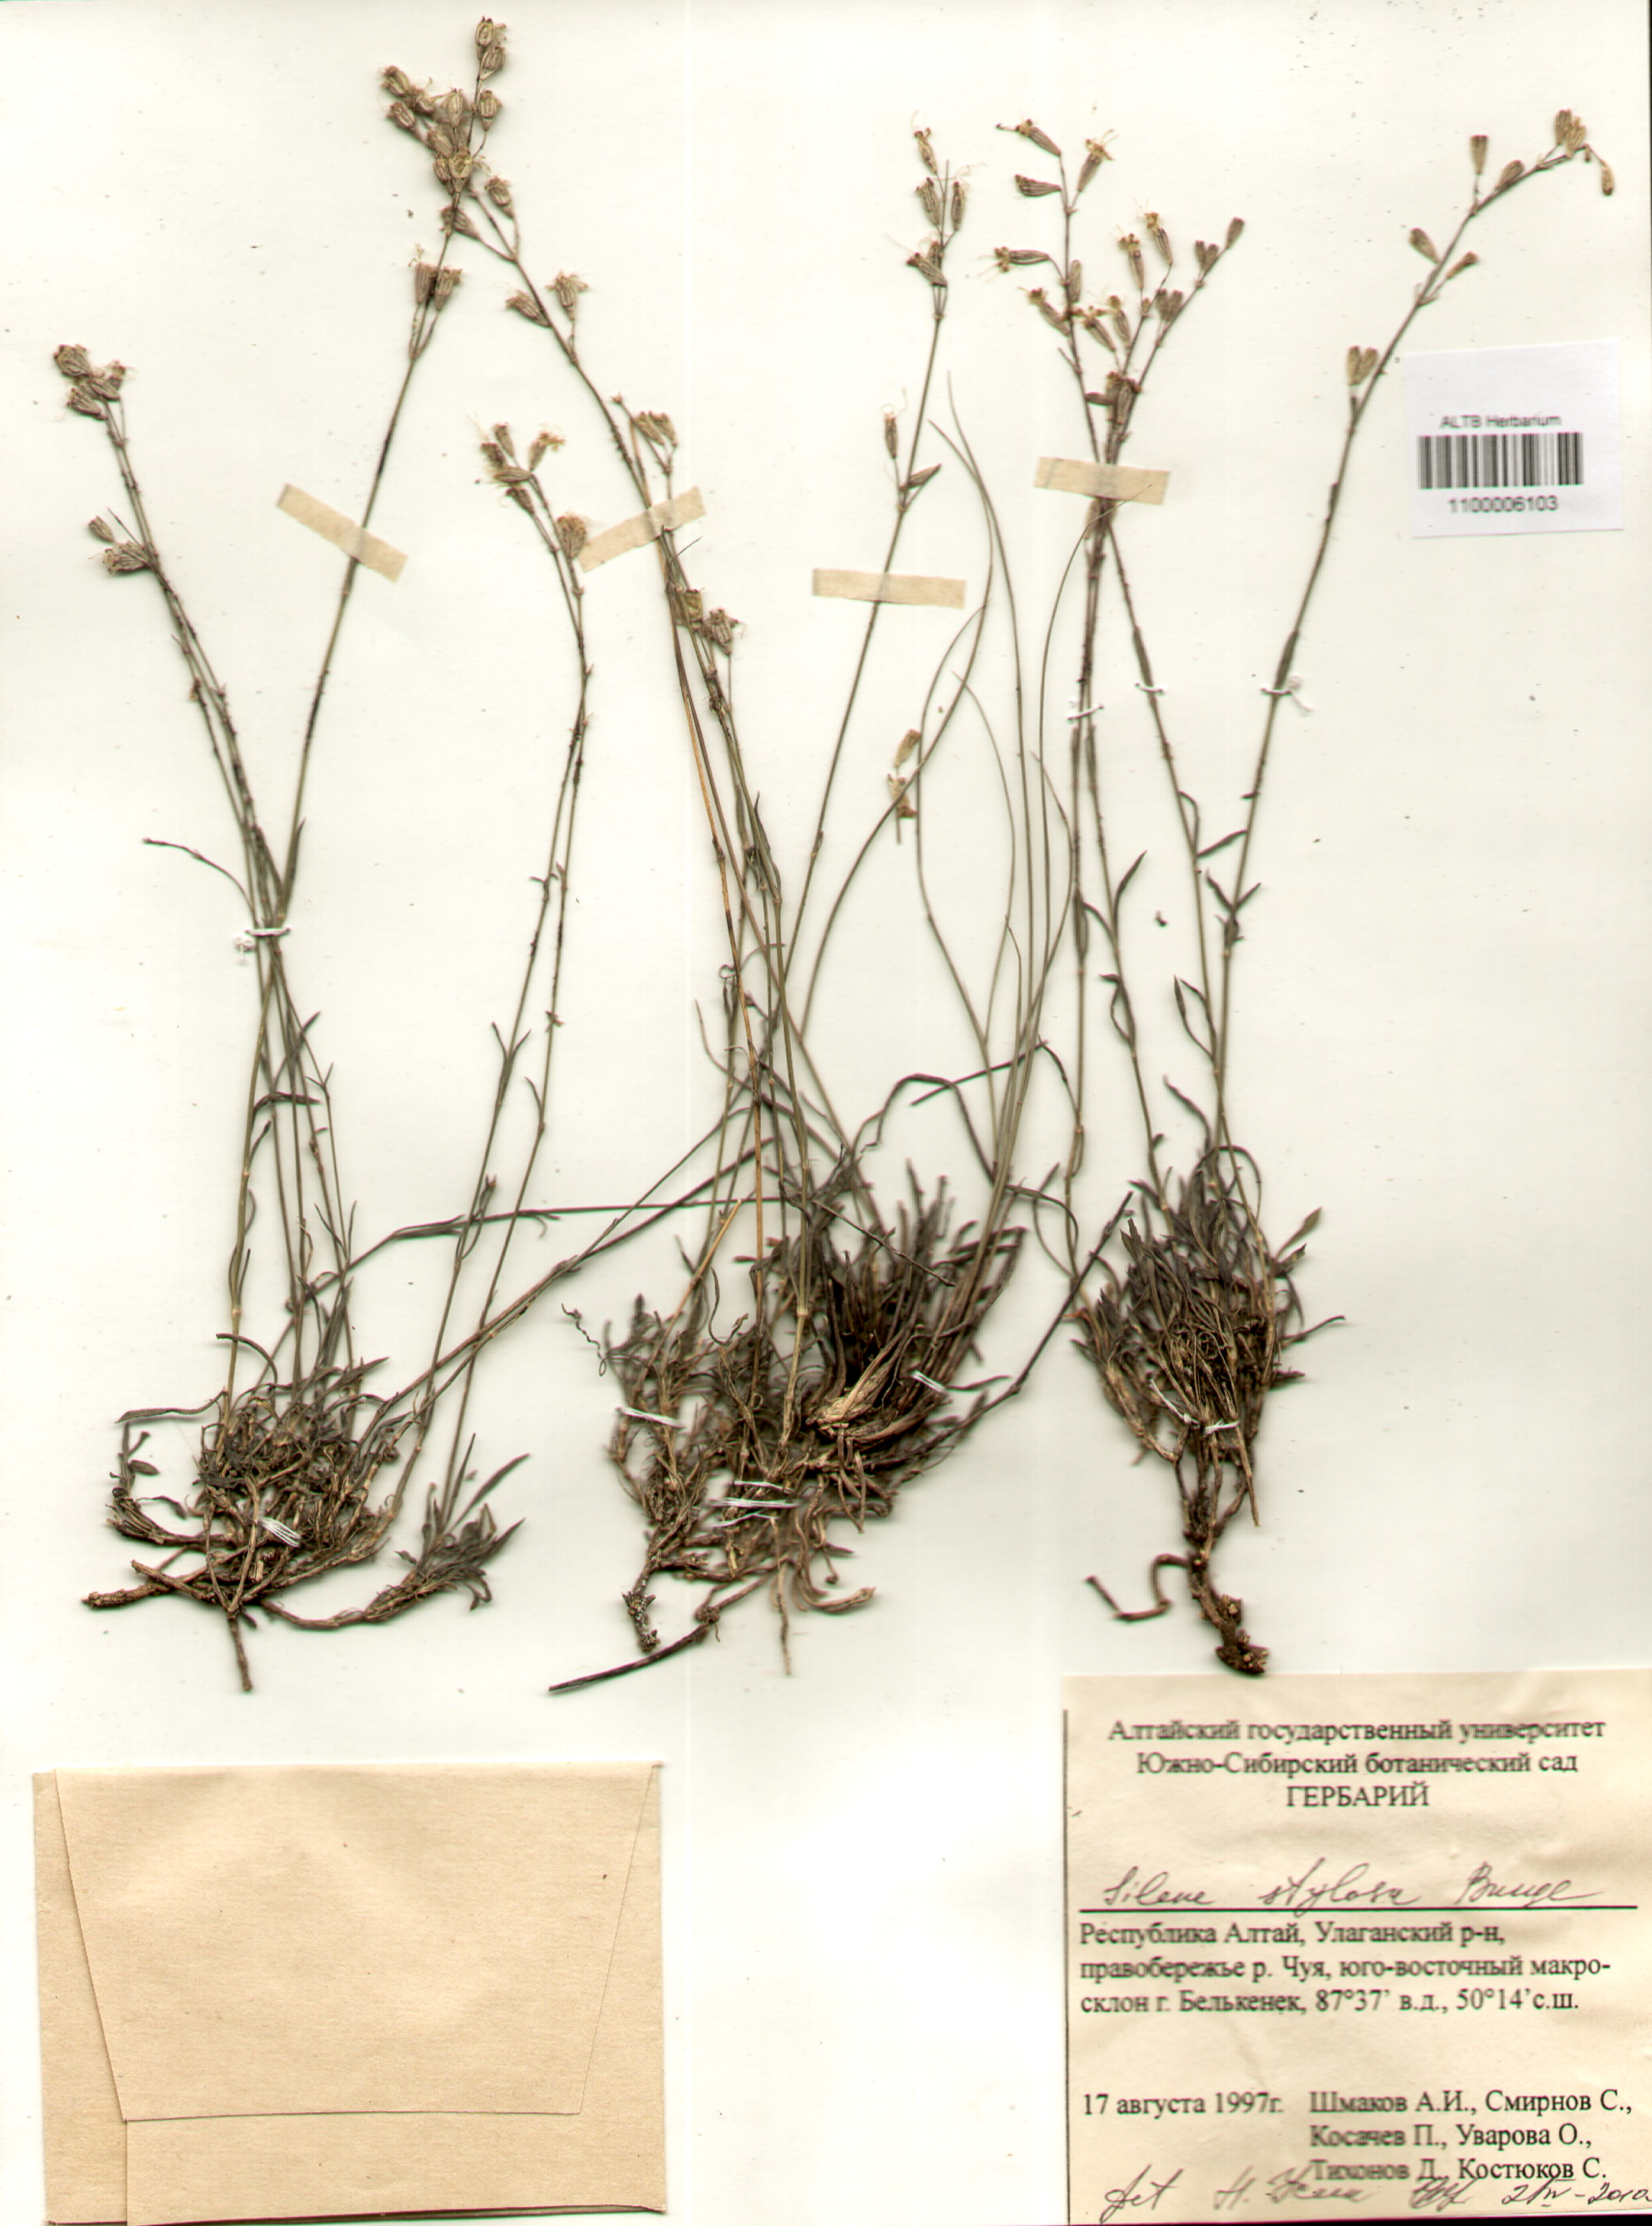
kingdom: Plantae
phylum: Tracheophyta
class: Magnoliopsida
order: Caryophyllales
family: Caryophyllaceae
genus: Silene
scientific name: Silene graminifolia
